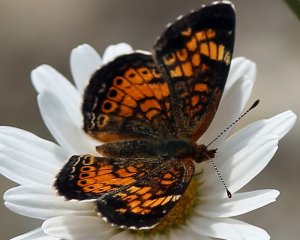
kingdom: Animalia
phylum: Arthropoda
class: Insecta
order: Lepidoptera
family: Nymphalidae
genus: Phyciodes
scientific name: Phyciodes tharos
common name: Pearl Crescent
